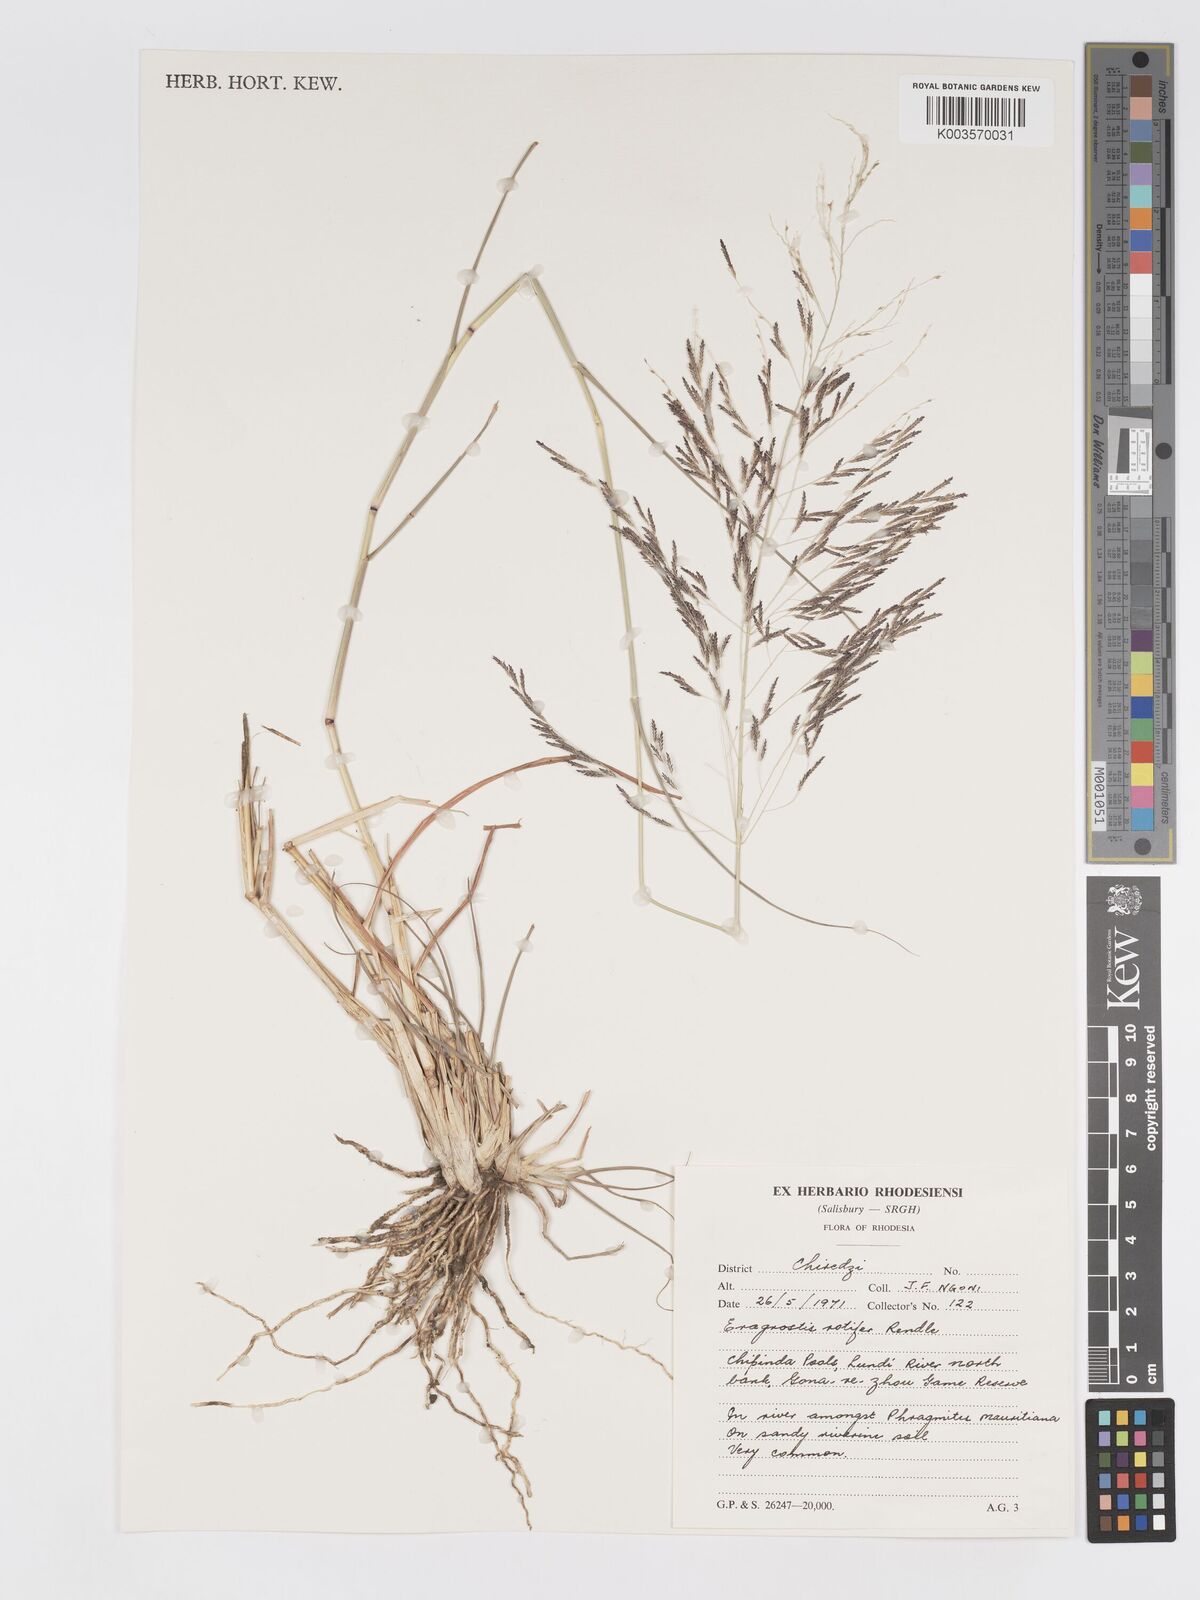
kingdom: Plantae
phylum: Tracheophyta
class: Liliopsida
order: Poales
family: Poaceae
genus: Eragrostis
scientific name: Eragrostis rotifer
